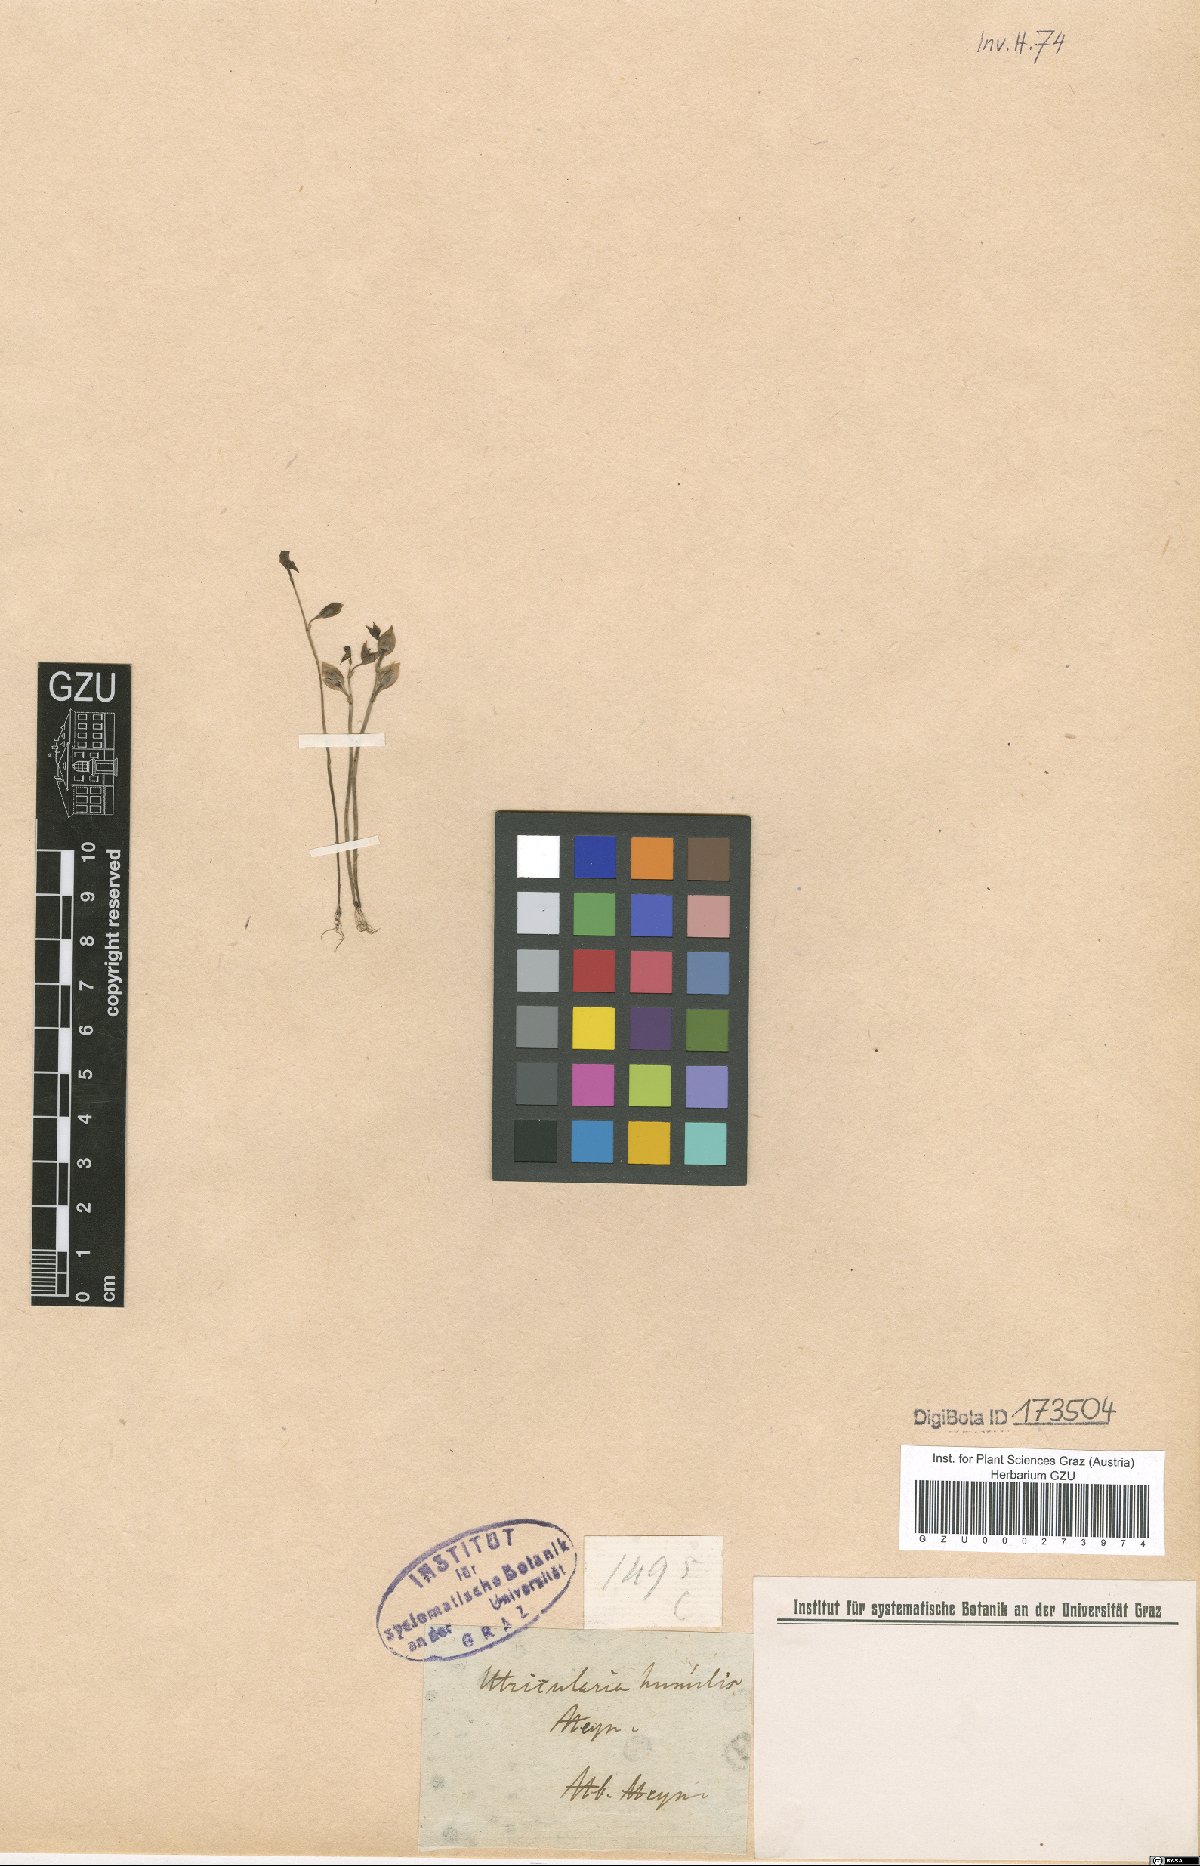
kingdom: Plantae
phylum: Tracheophyta
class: Magnoliopsida
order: Lamiales
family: Lentibulariaceae
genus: Utricularia
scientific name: Utricularia polygaloides
